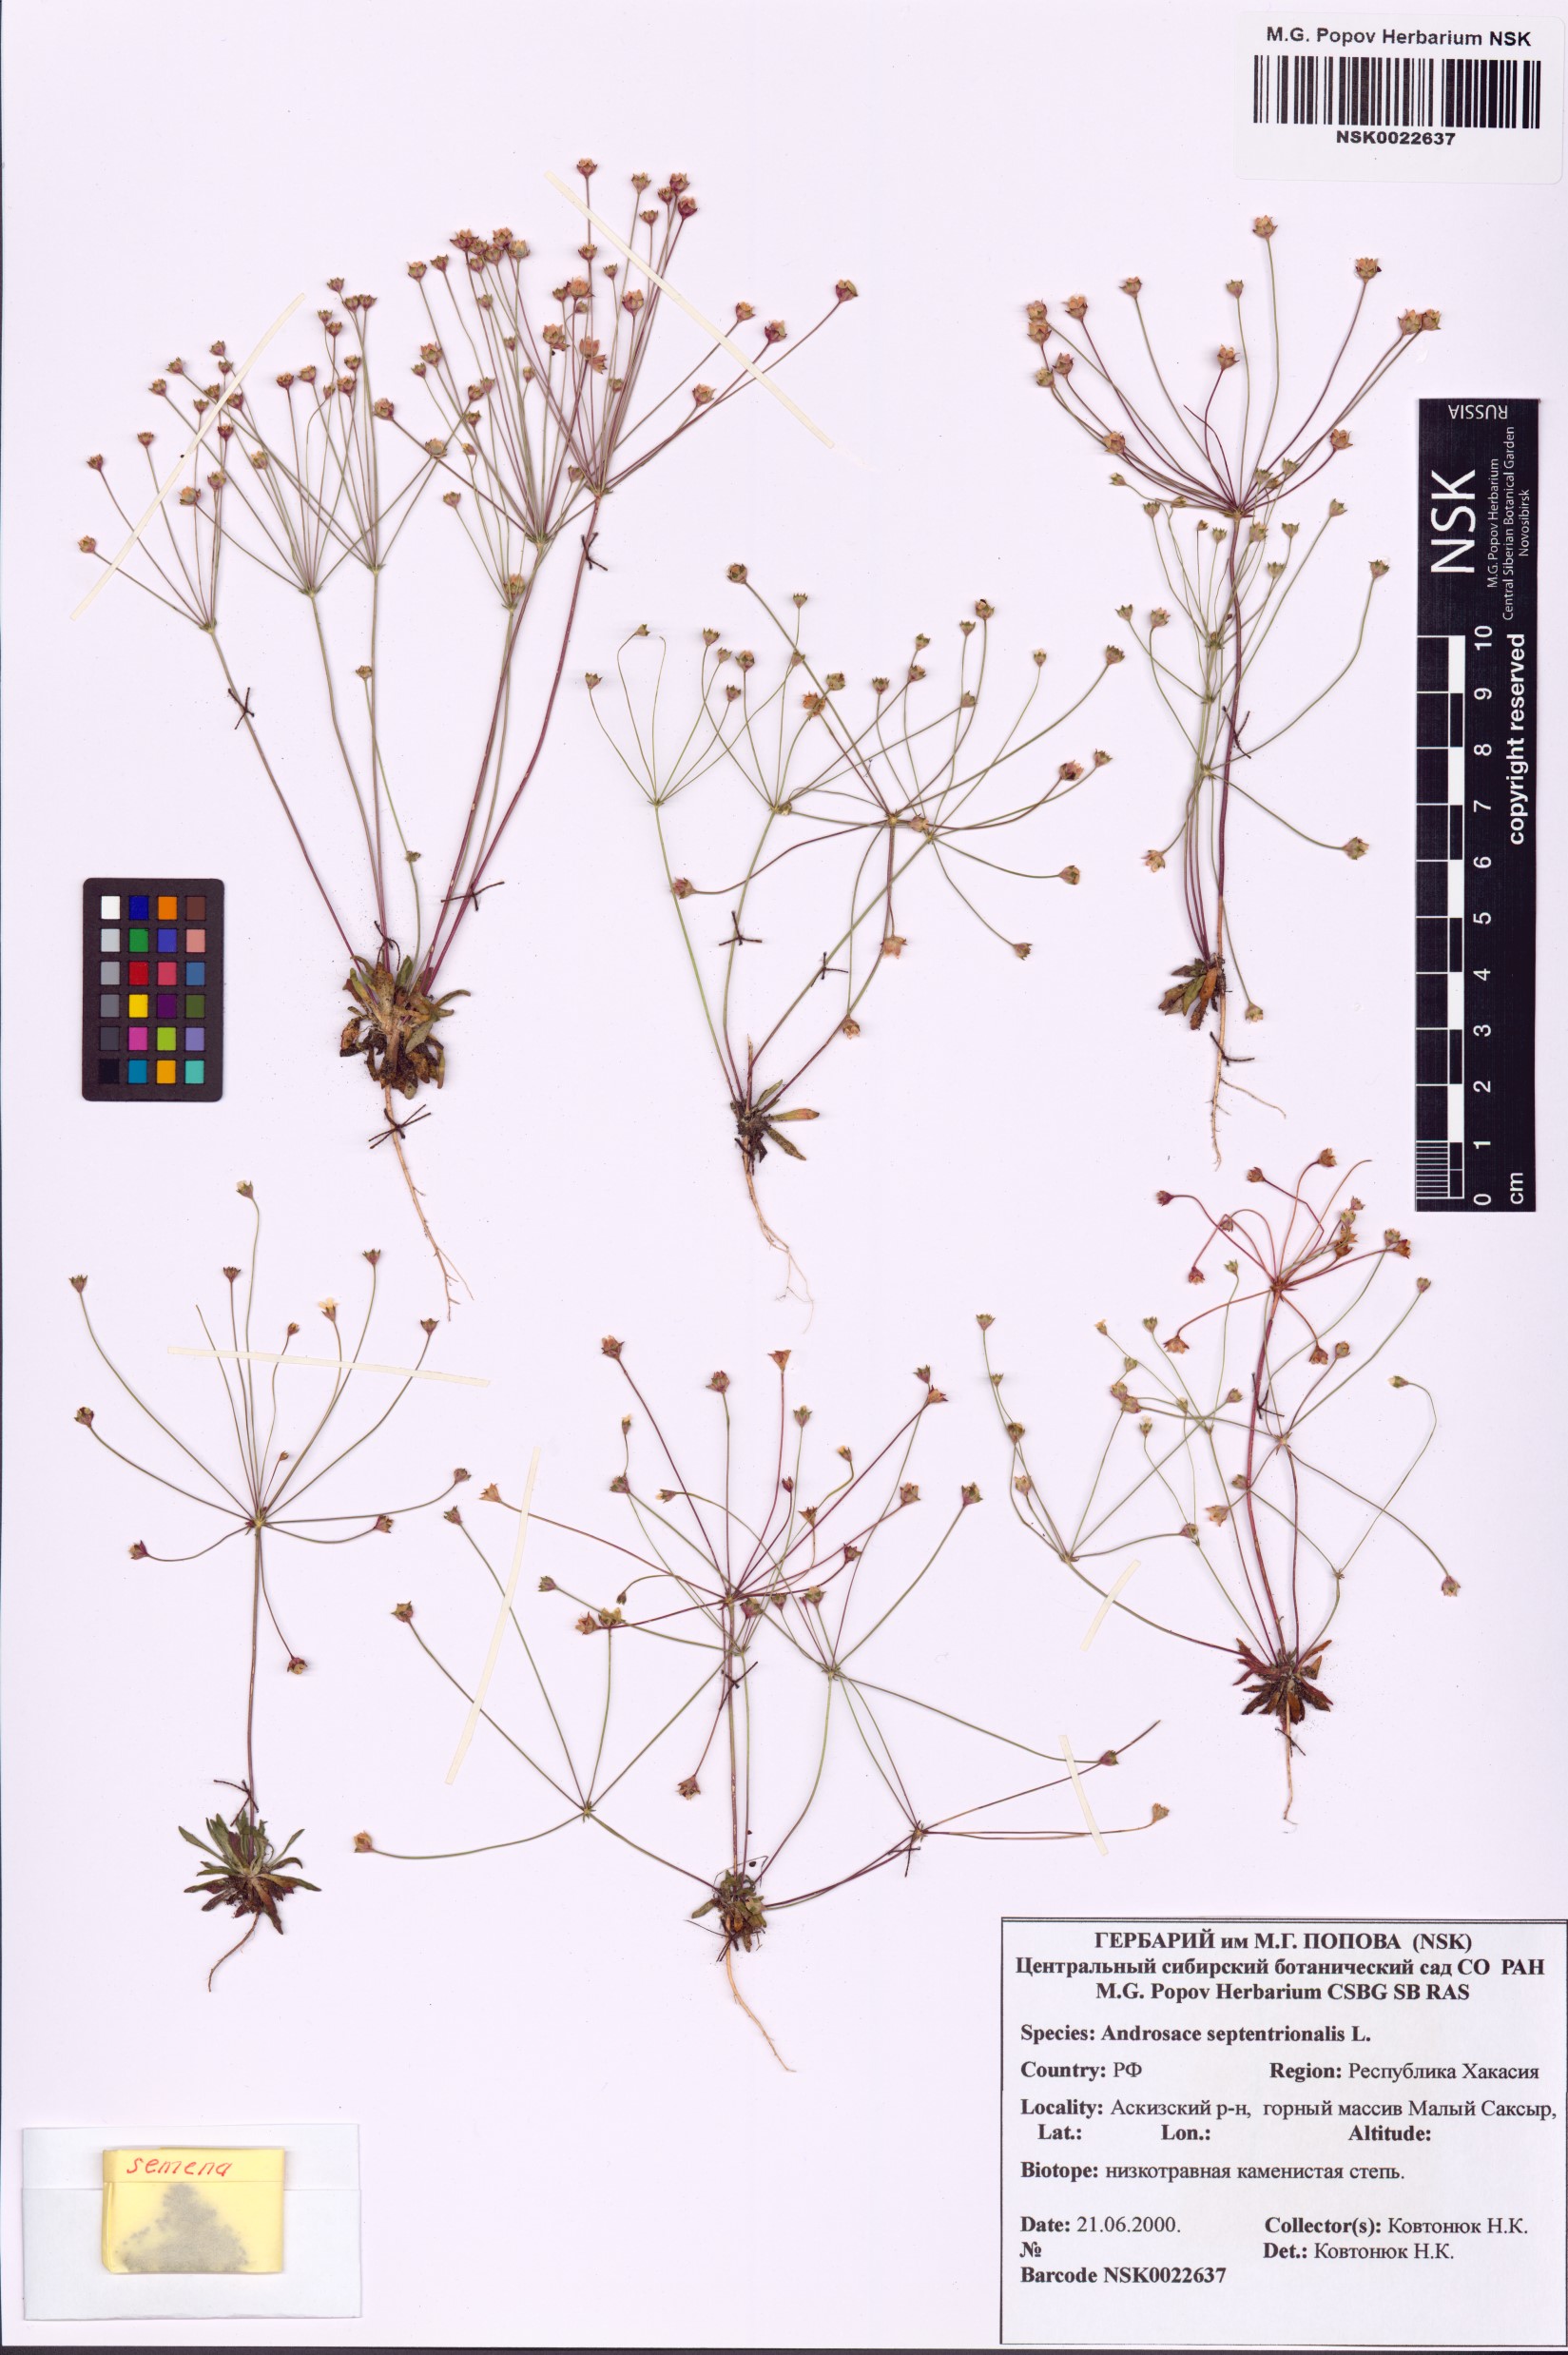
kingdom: Plantae
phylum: Tracheophyta
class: Magnoliopsida
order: Ericales
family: Primulaceae
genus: Androsace
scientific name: Androsace septentrionalis
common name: Hairy northern fairy-candelabra
